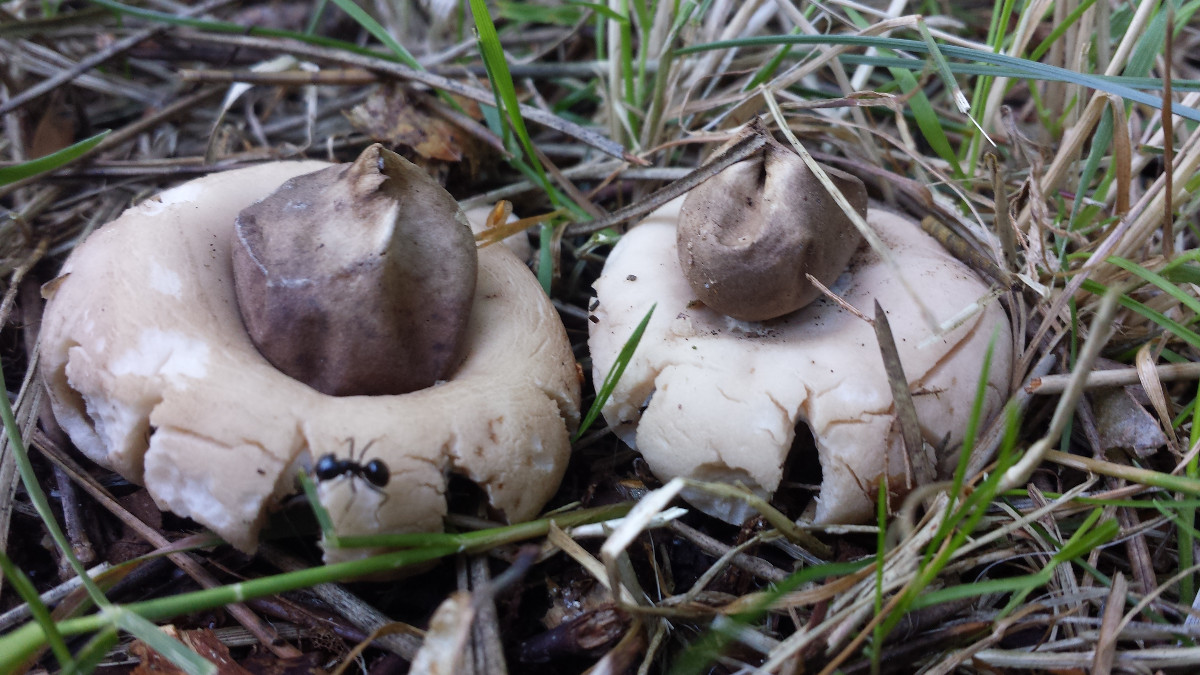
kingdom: Fungi
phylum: Basidiomycota
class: Agaricomycetes
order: Geastrales
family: Geastraceae
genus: Geastrum
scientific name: Geastrum fimbriatum
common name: frynset stjernebold
